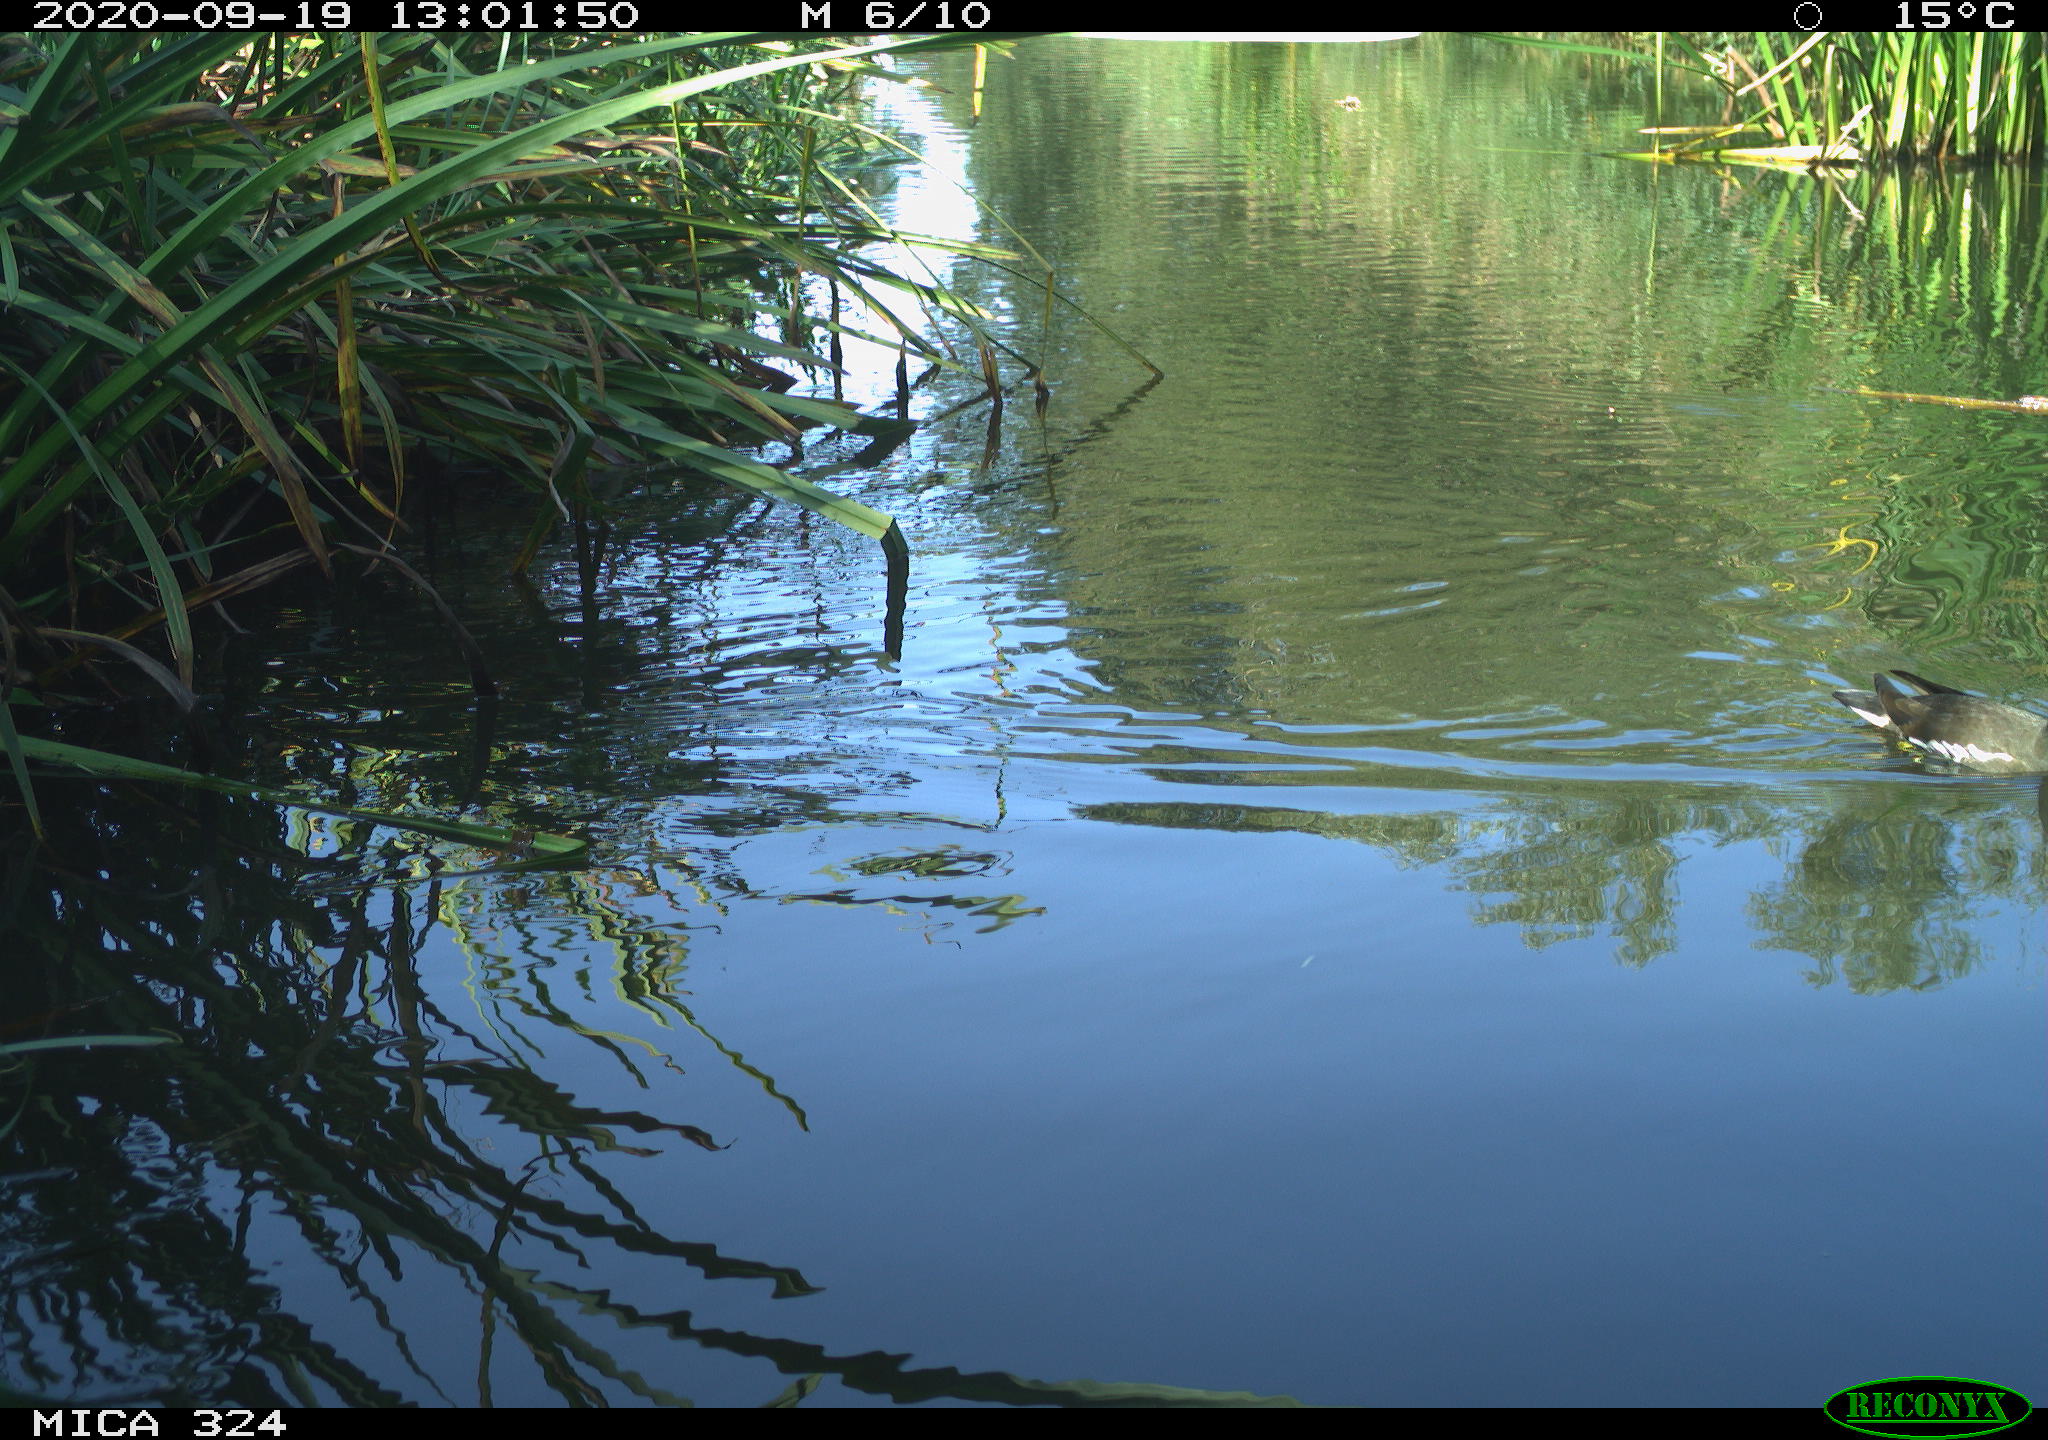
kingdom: Animalia
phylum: Chordata
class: Aves
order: Gruiformes
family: Rallidae
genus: Gallinula
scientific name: Gallinula chloropus
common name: Common moorhen
